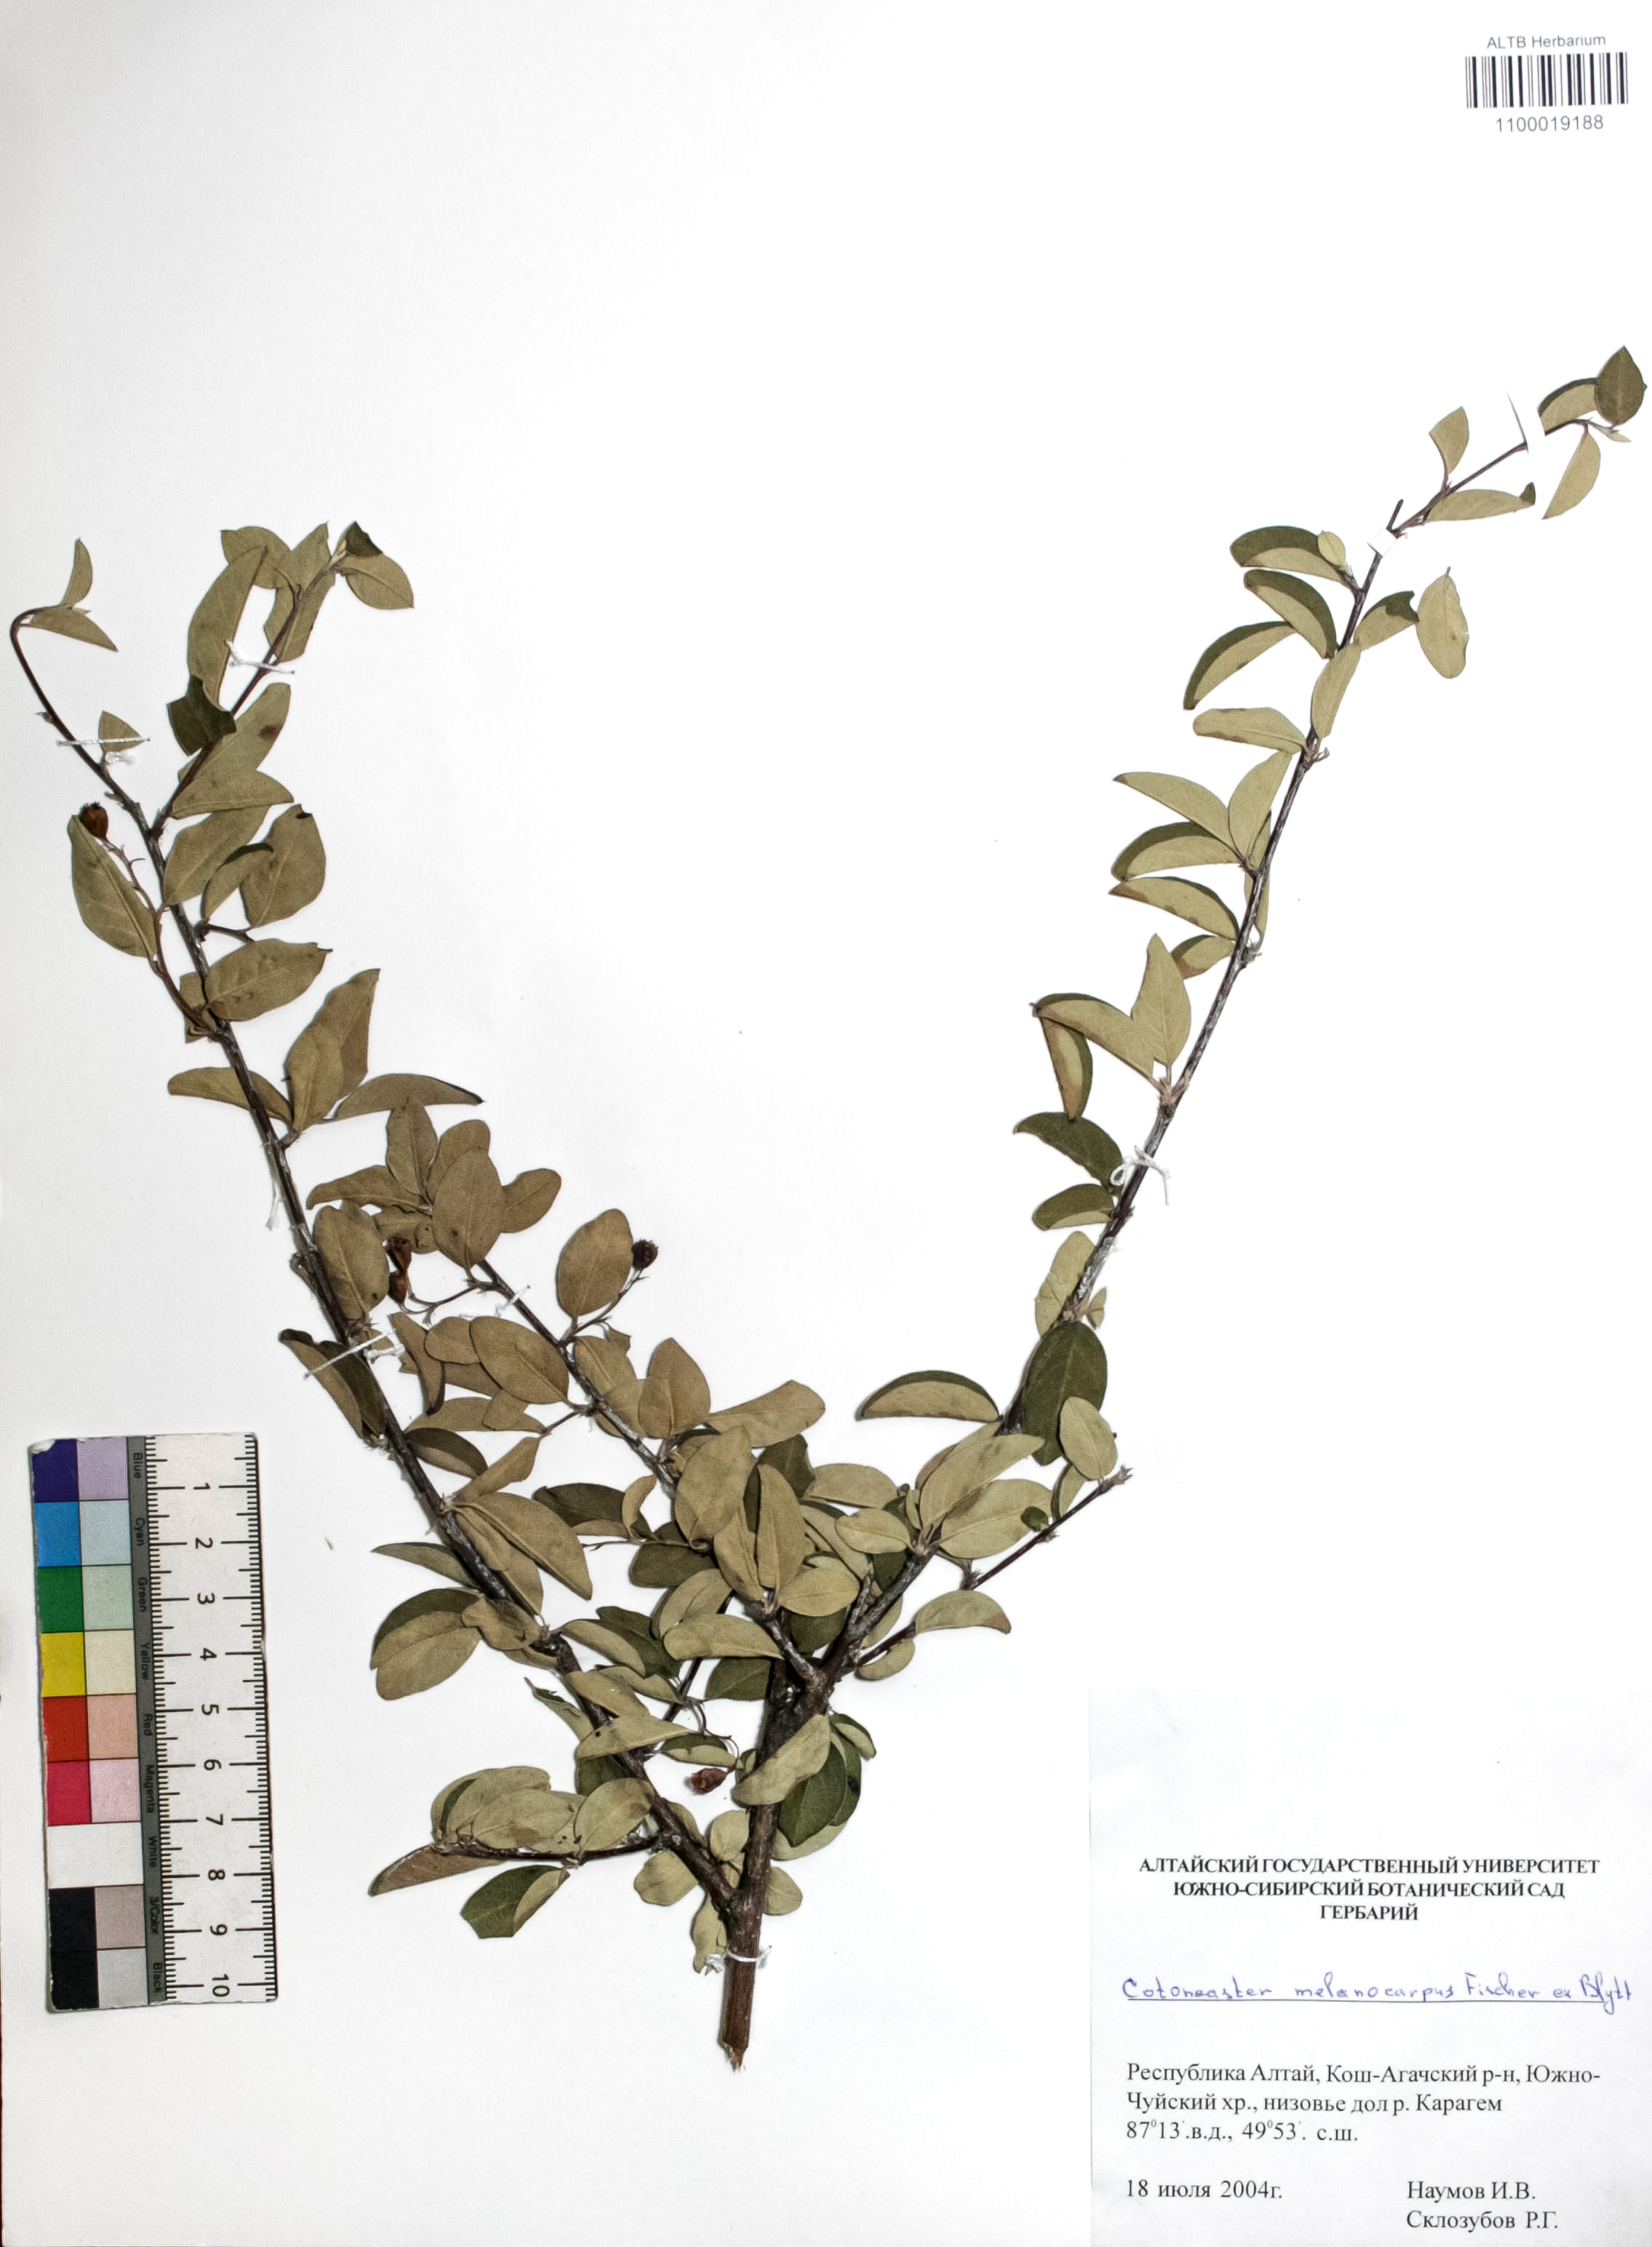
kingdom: Plantae
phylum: Tracheophyta
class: Magnoliopsida
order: Rosales
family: Rosaceae
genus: Cotoneaster
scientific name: Cotoneaster niger
